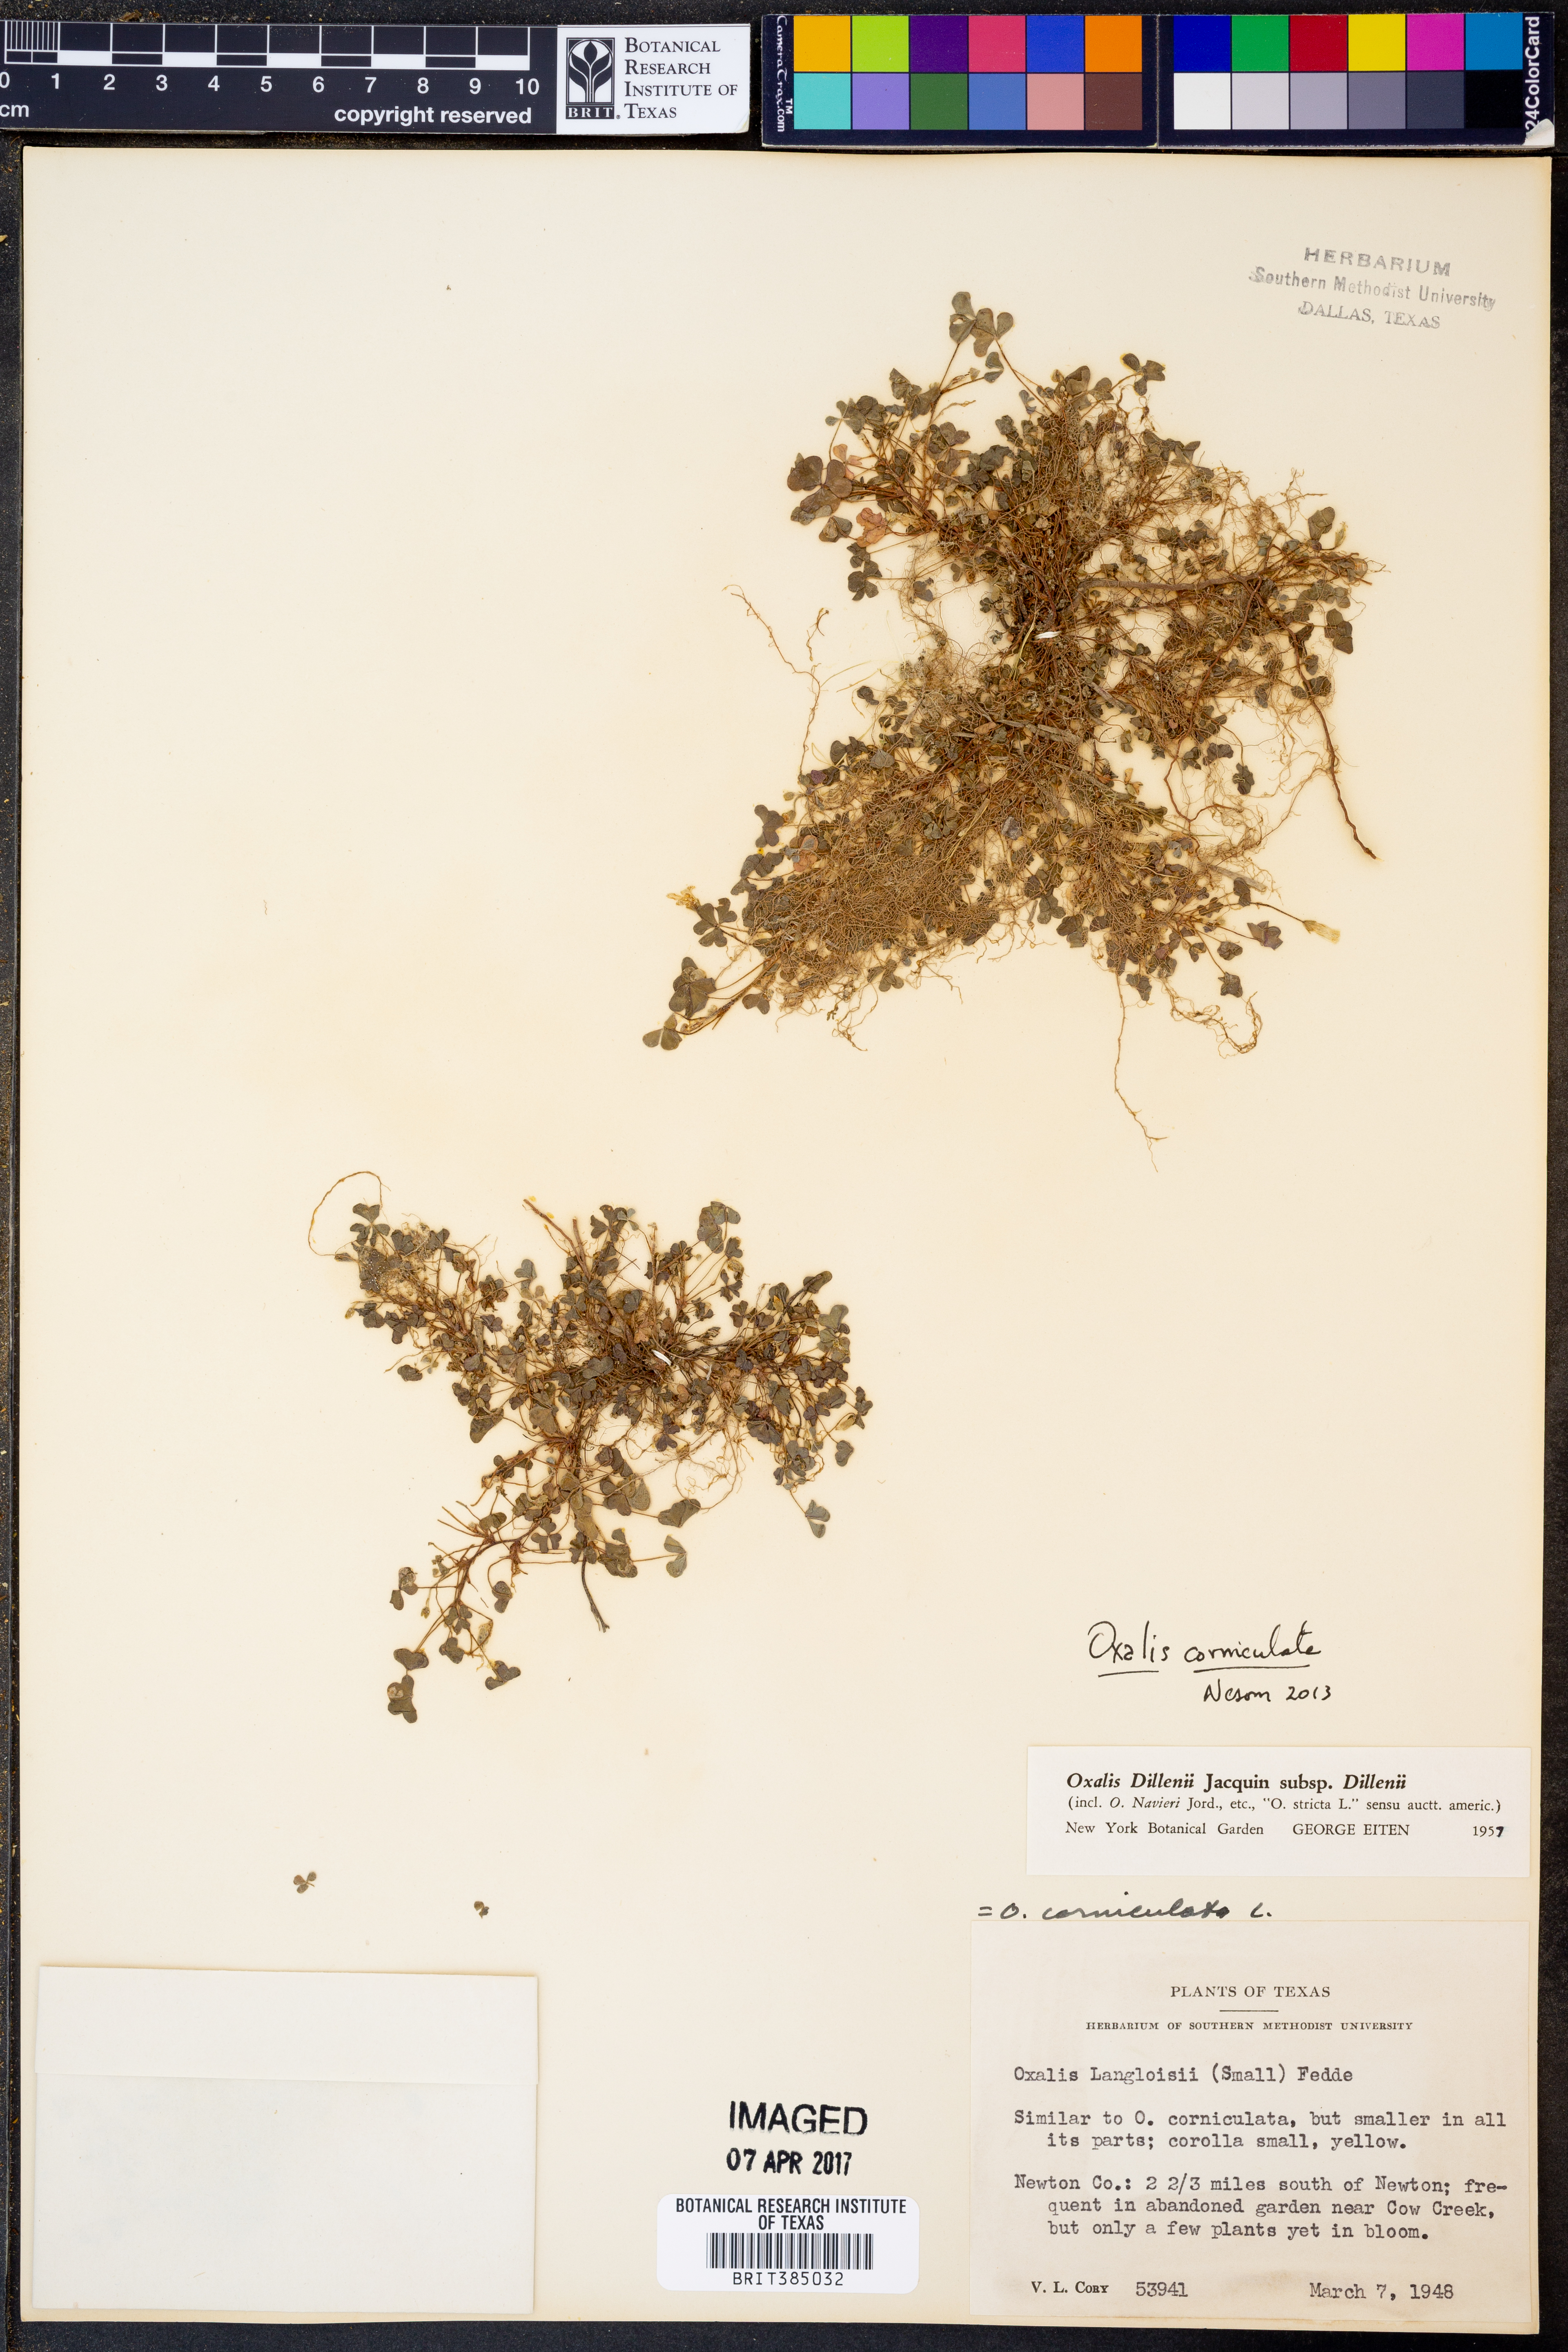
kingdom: Plantae
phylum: Tracheophyta
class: Magnoliopsida
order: Oxalidales
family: Oxalidaceae
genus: Oxalis
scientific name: Oxalis corniculata
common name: Procumbent yellow-sorrel
